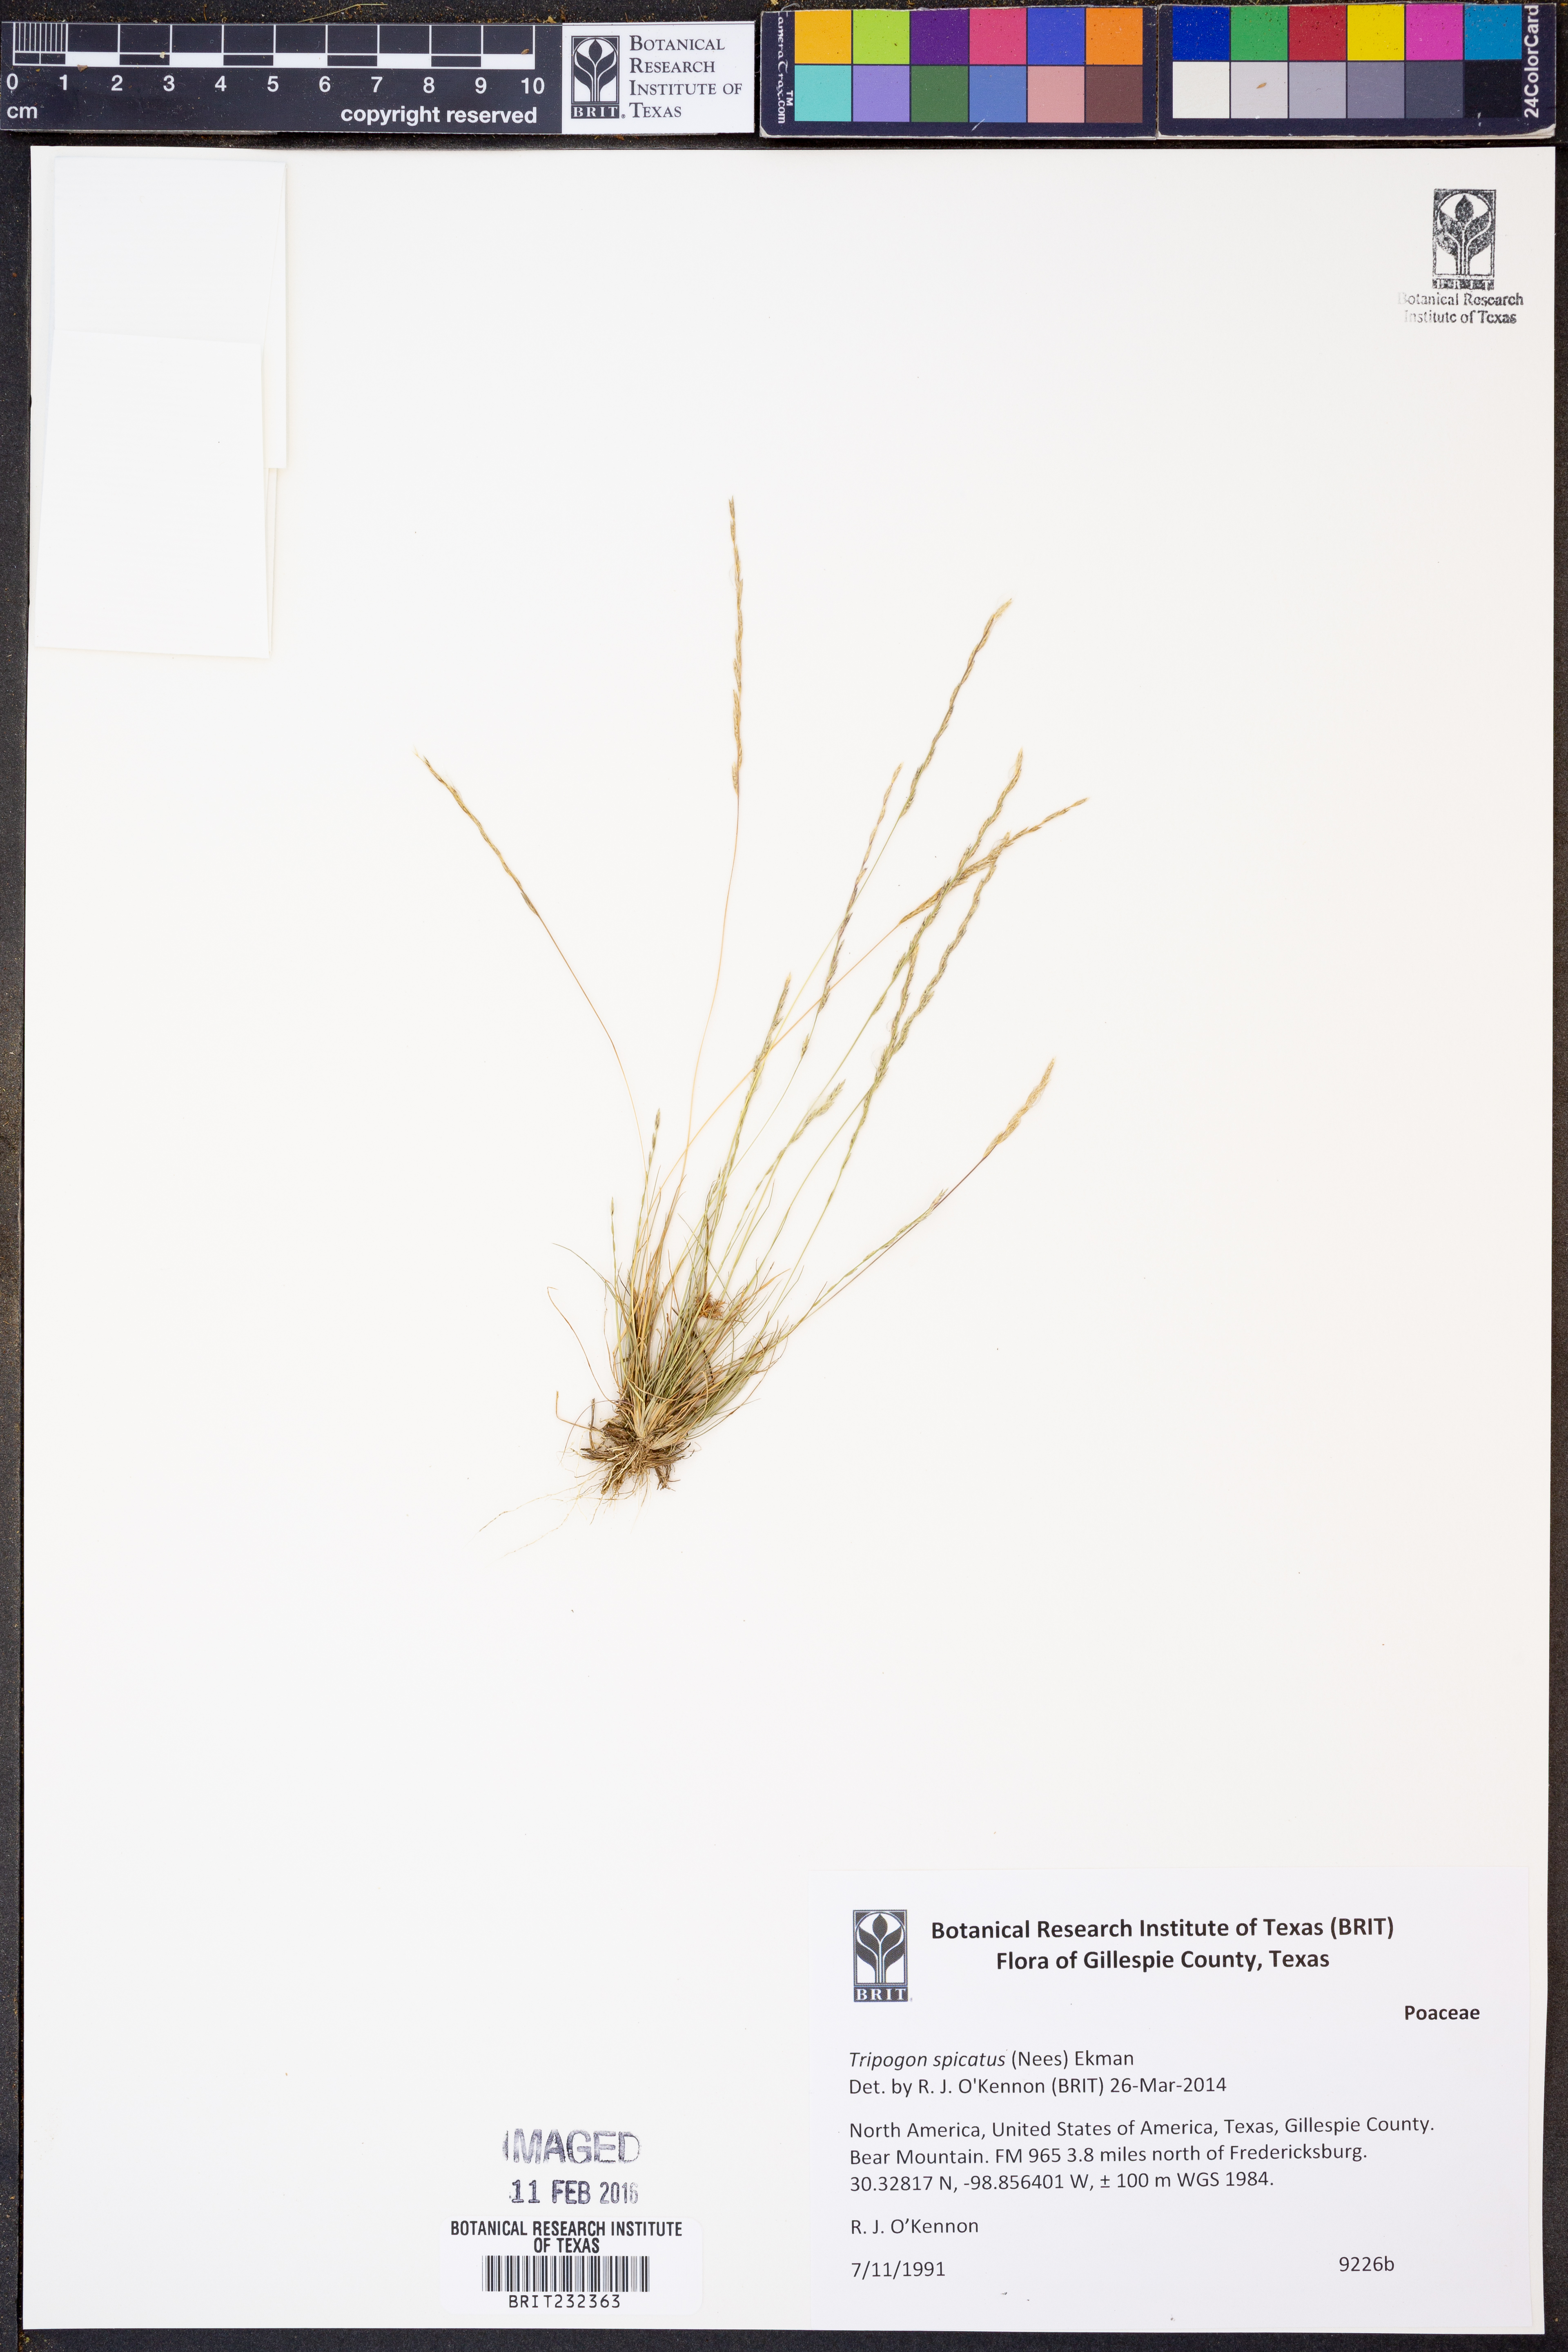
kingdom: Plantae
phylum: Tracheophyta
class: Liliopsida
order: Poales
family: Poaceae
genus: Tripogonella
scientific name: Tripogonella spicata
